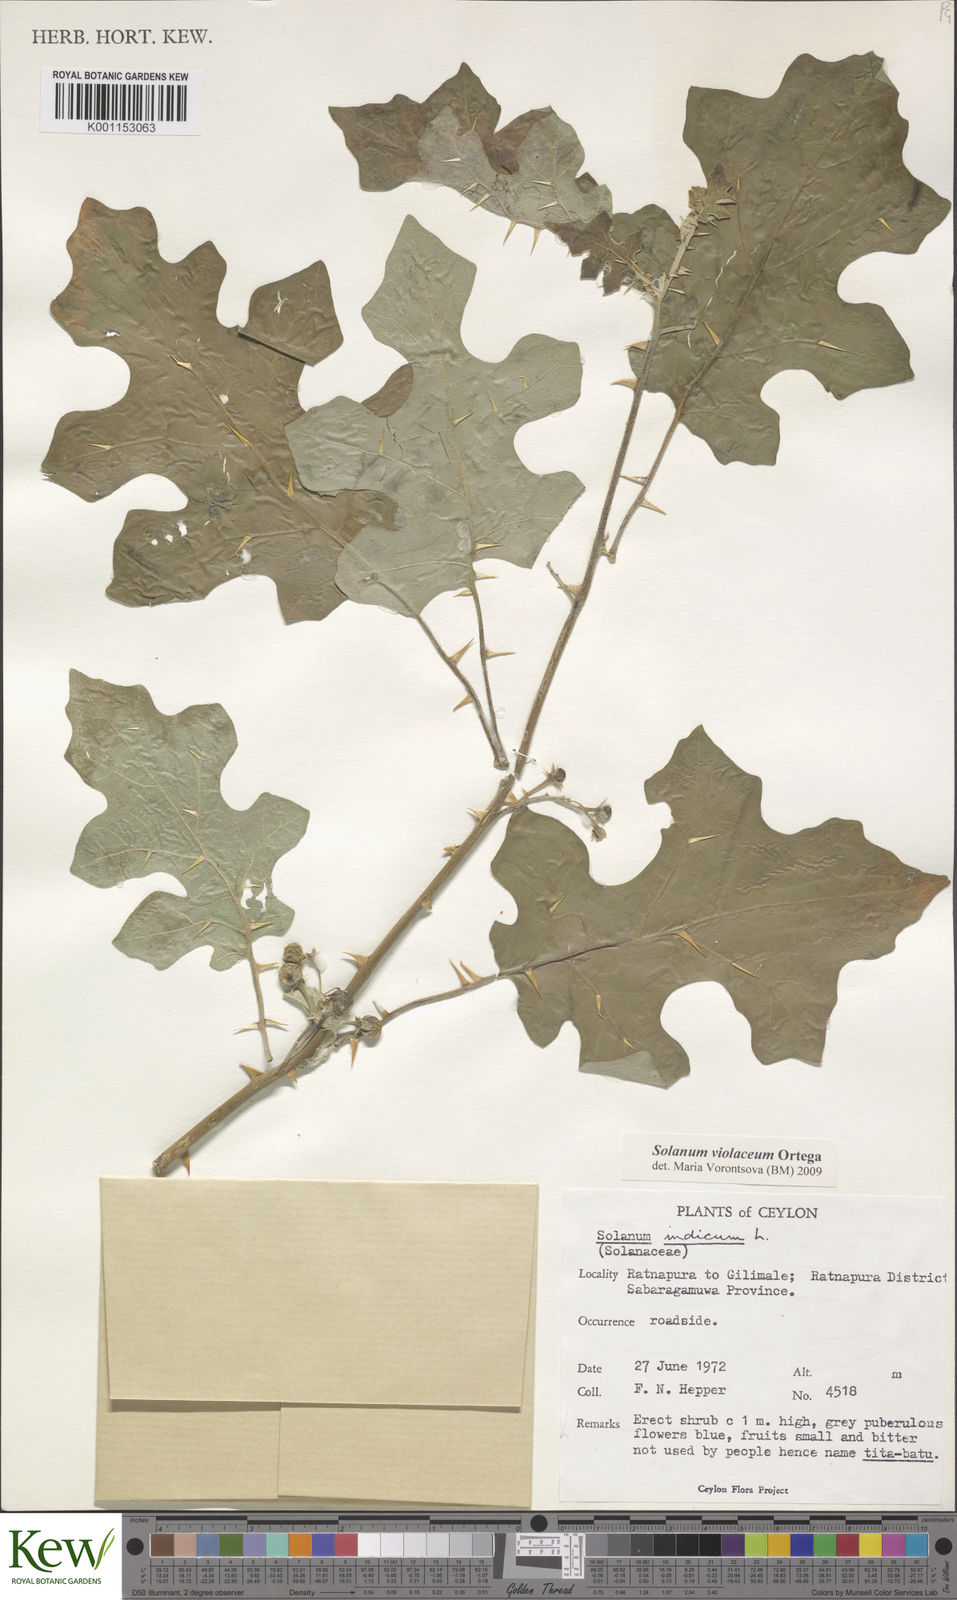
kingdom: Plantae
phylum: Tracheophyta
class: Magnoliopsida
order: Solanales
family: Solanaceae
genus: Solanum
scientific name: Solanum violaceum
